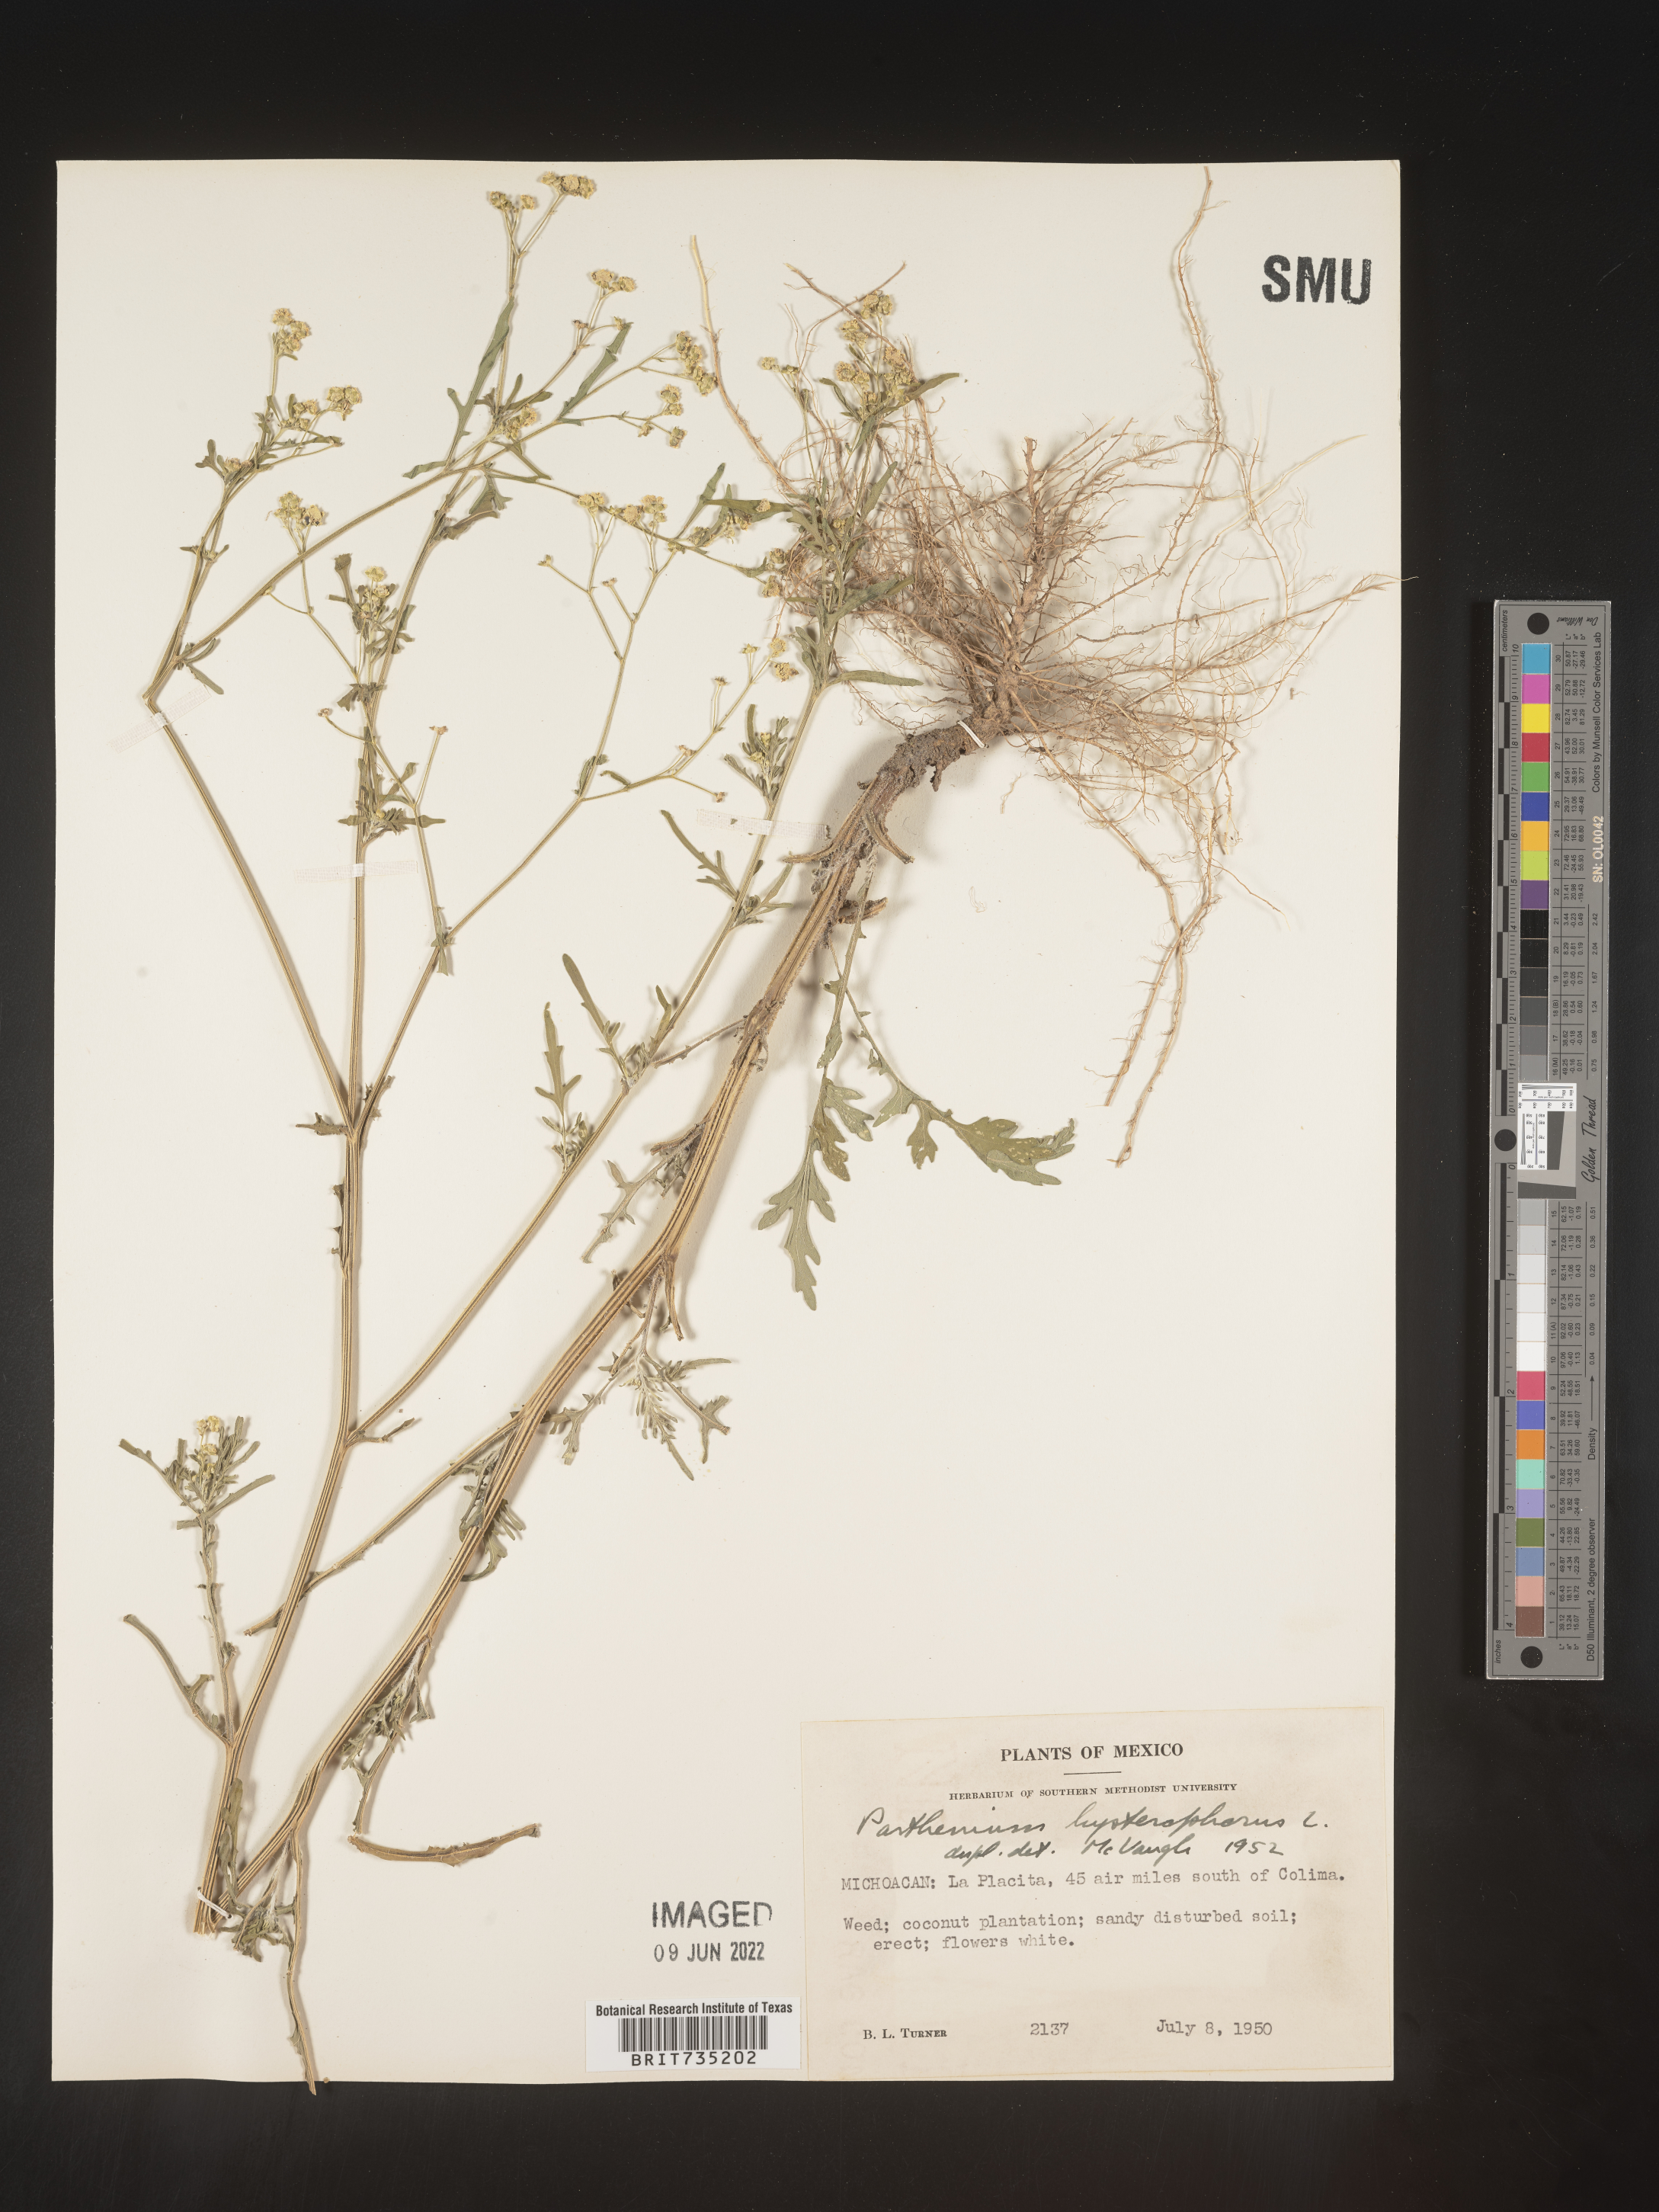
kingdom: Plantae
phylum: Tracheophyta
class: Magnoliopsida
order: Asterales
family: Asteraceae
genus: Parthenium
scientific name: Parthenium hysterophorus
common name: Santa maria feverfew
